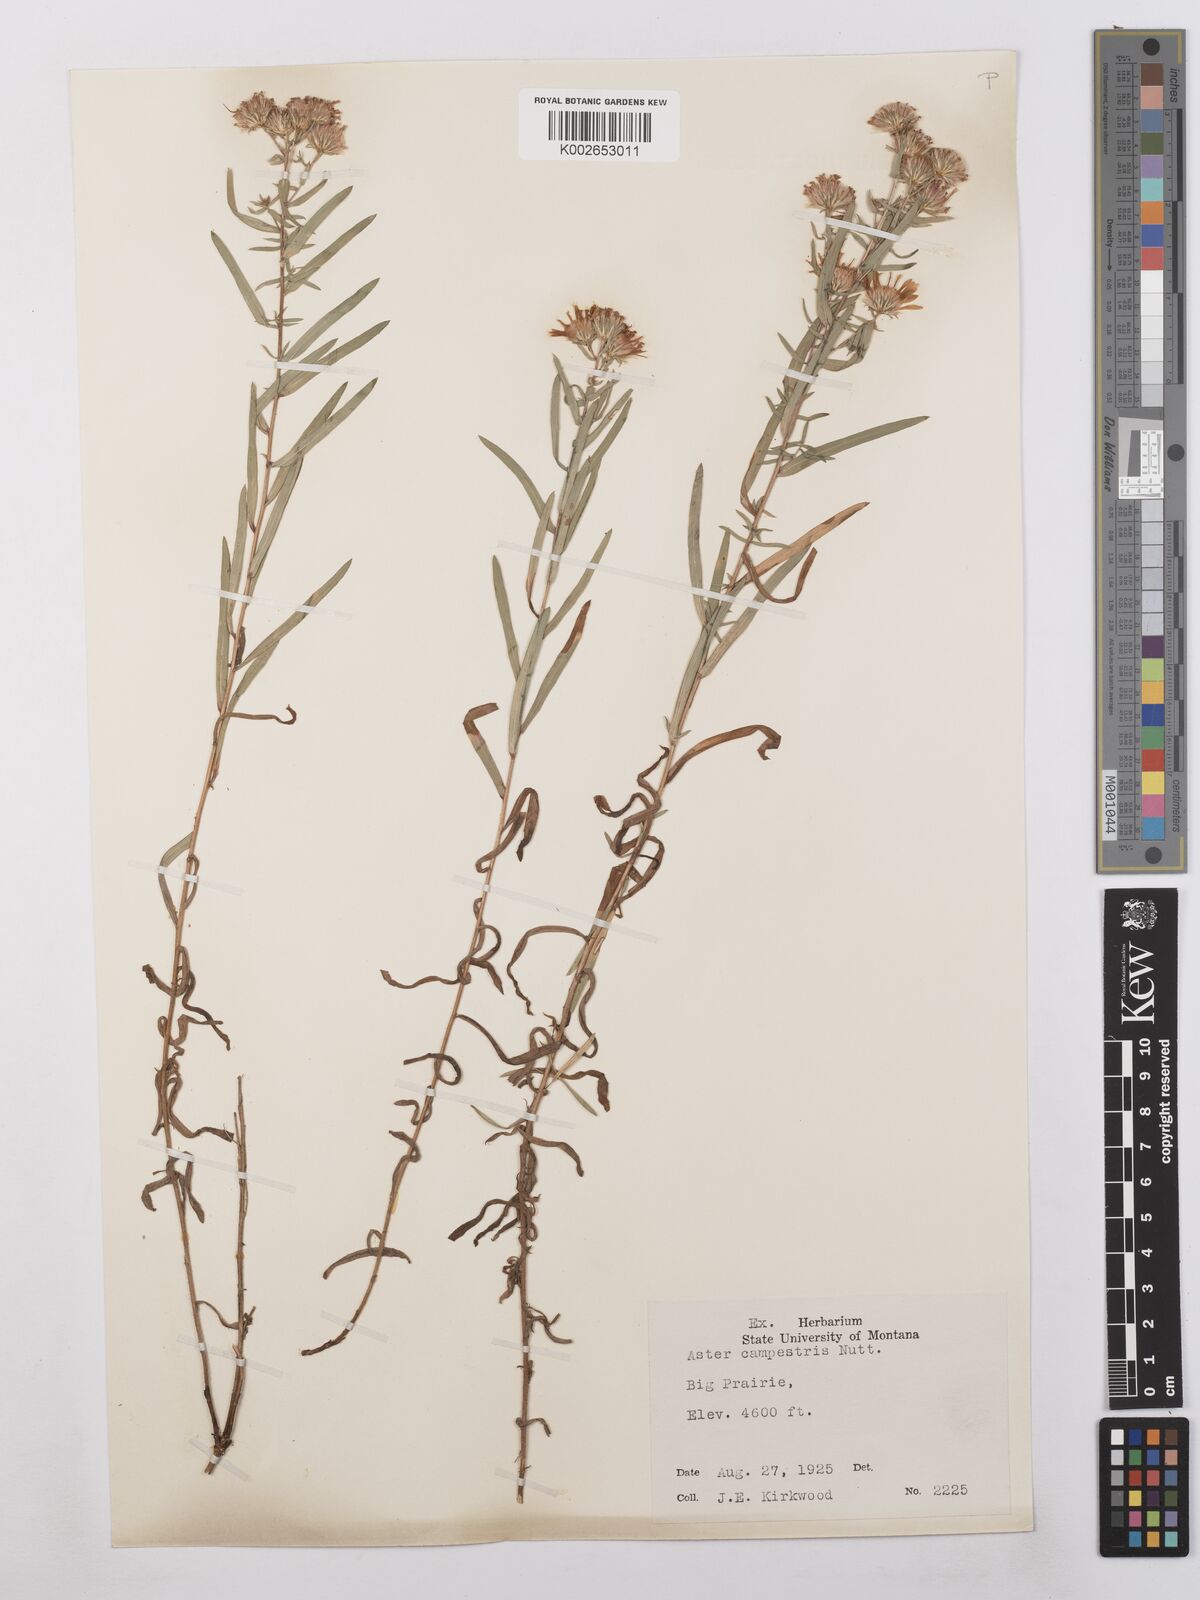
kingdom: Plantae
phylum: Tracheophyta
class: Magnoliopsida
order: Asterales
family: Asteraceae
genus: Symphyotrichum
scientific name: Symphyotrichum campestre
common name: Meadow aster
